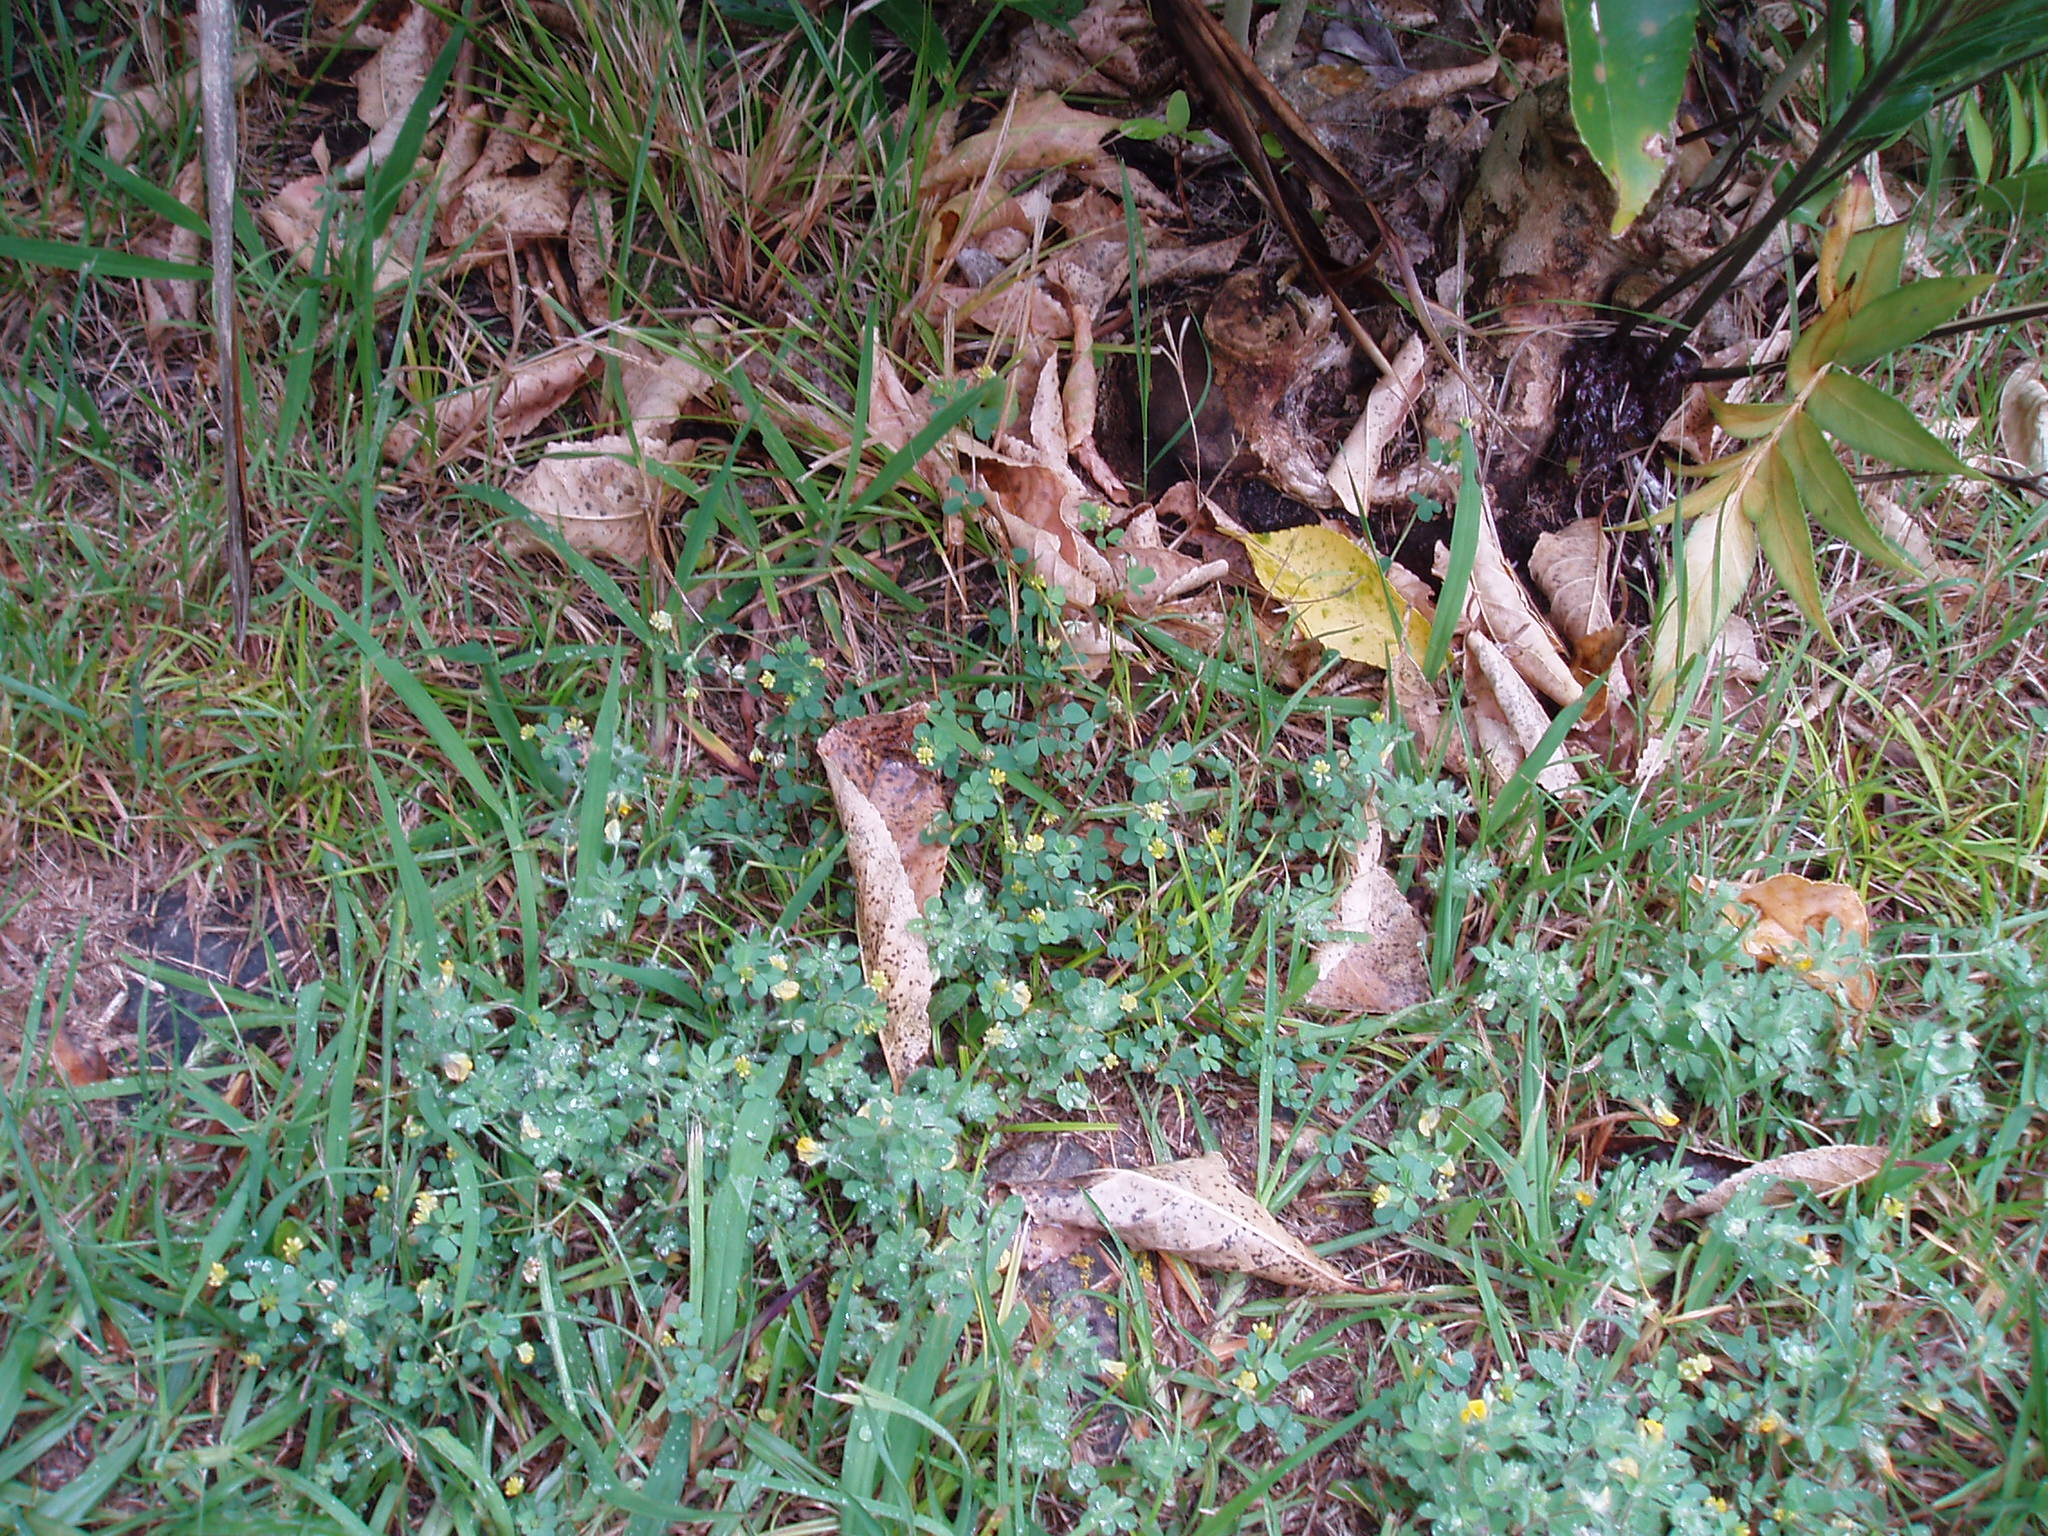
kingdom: Plantae
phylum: Tracheophyta
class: Magnoliopsida
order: Fabales
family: Fabaceae
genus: Lotus
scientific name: Lotus angustissimus
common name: Slender bird's-foot trefoil
